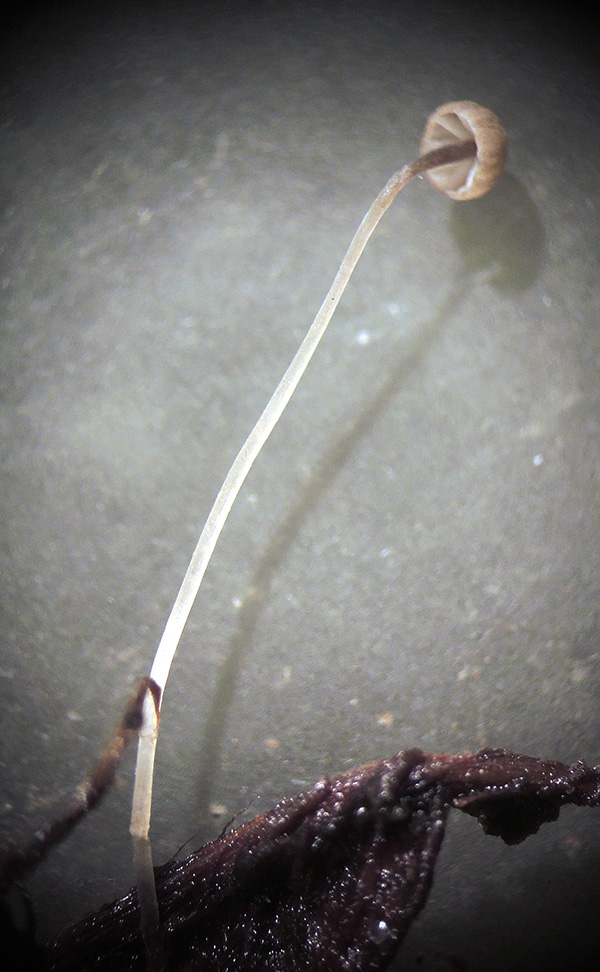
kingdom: Fungi
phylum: Basidiomycota
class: Agaricomycetes
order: Agaricales
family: Mycenaceae
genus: Mycena
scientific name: Mycena terena
